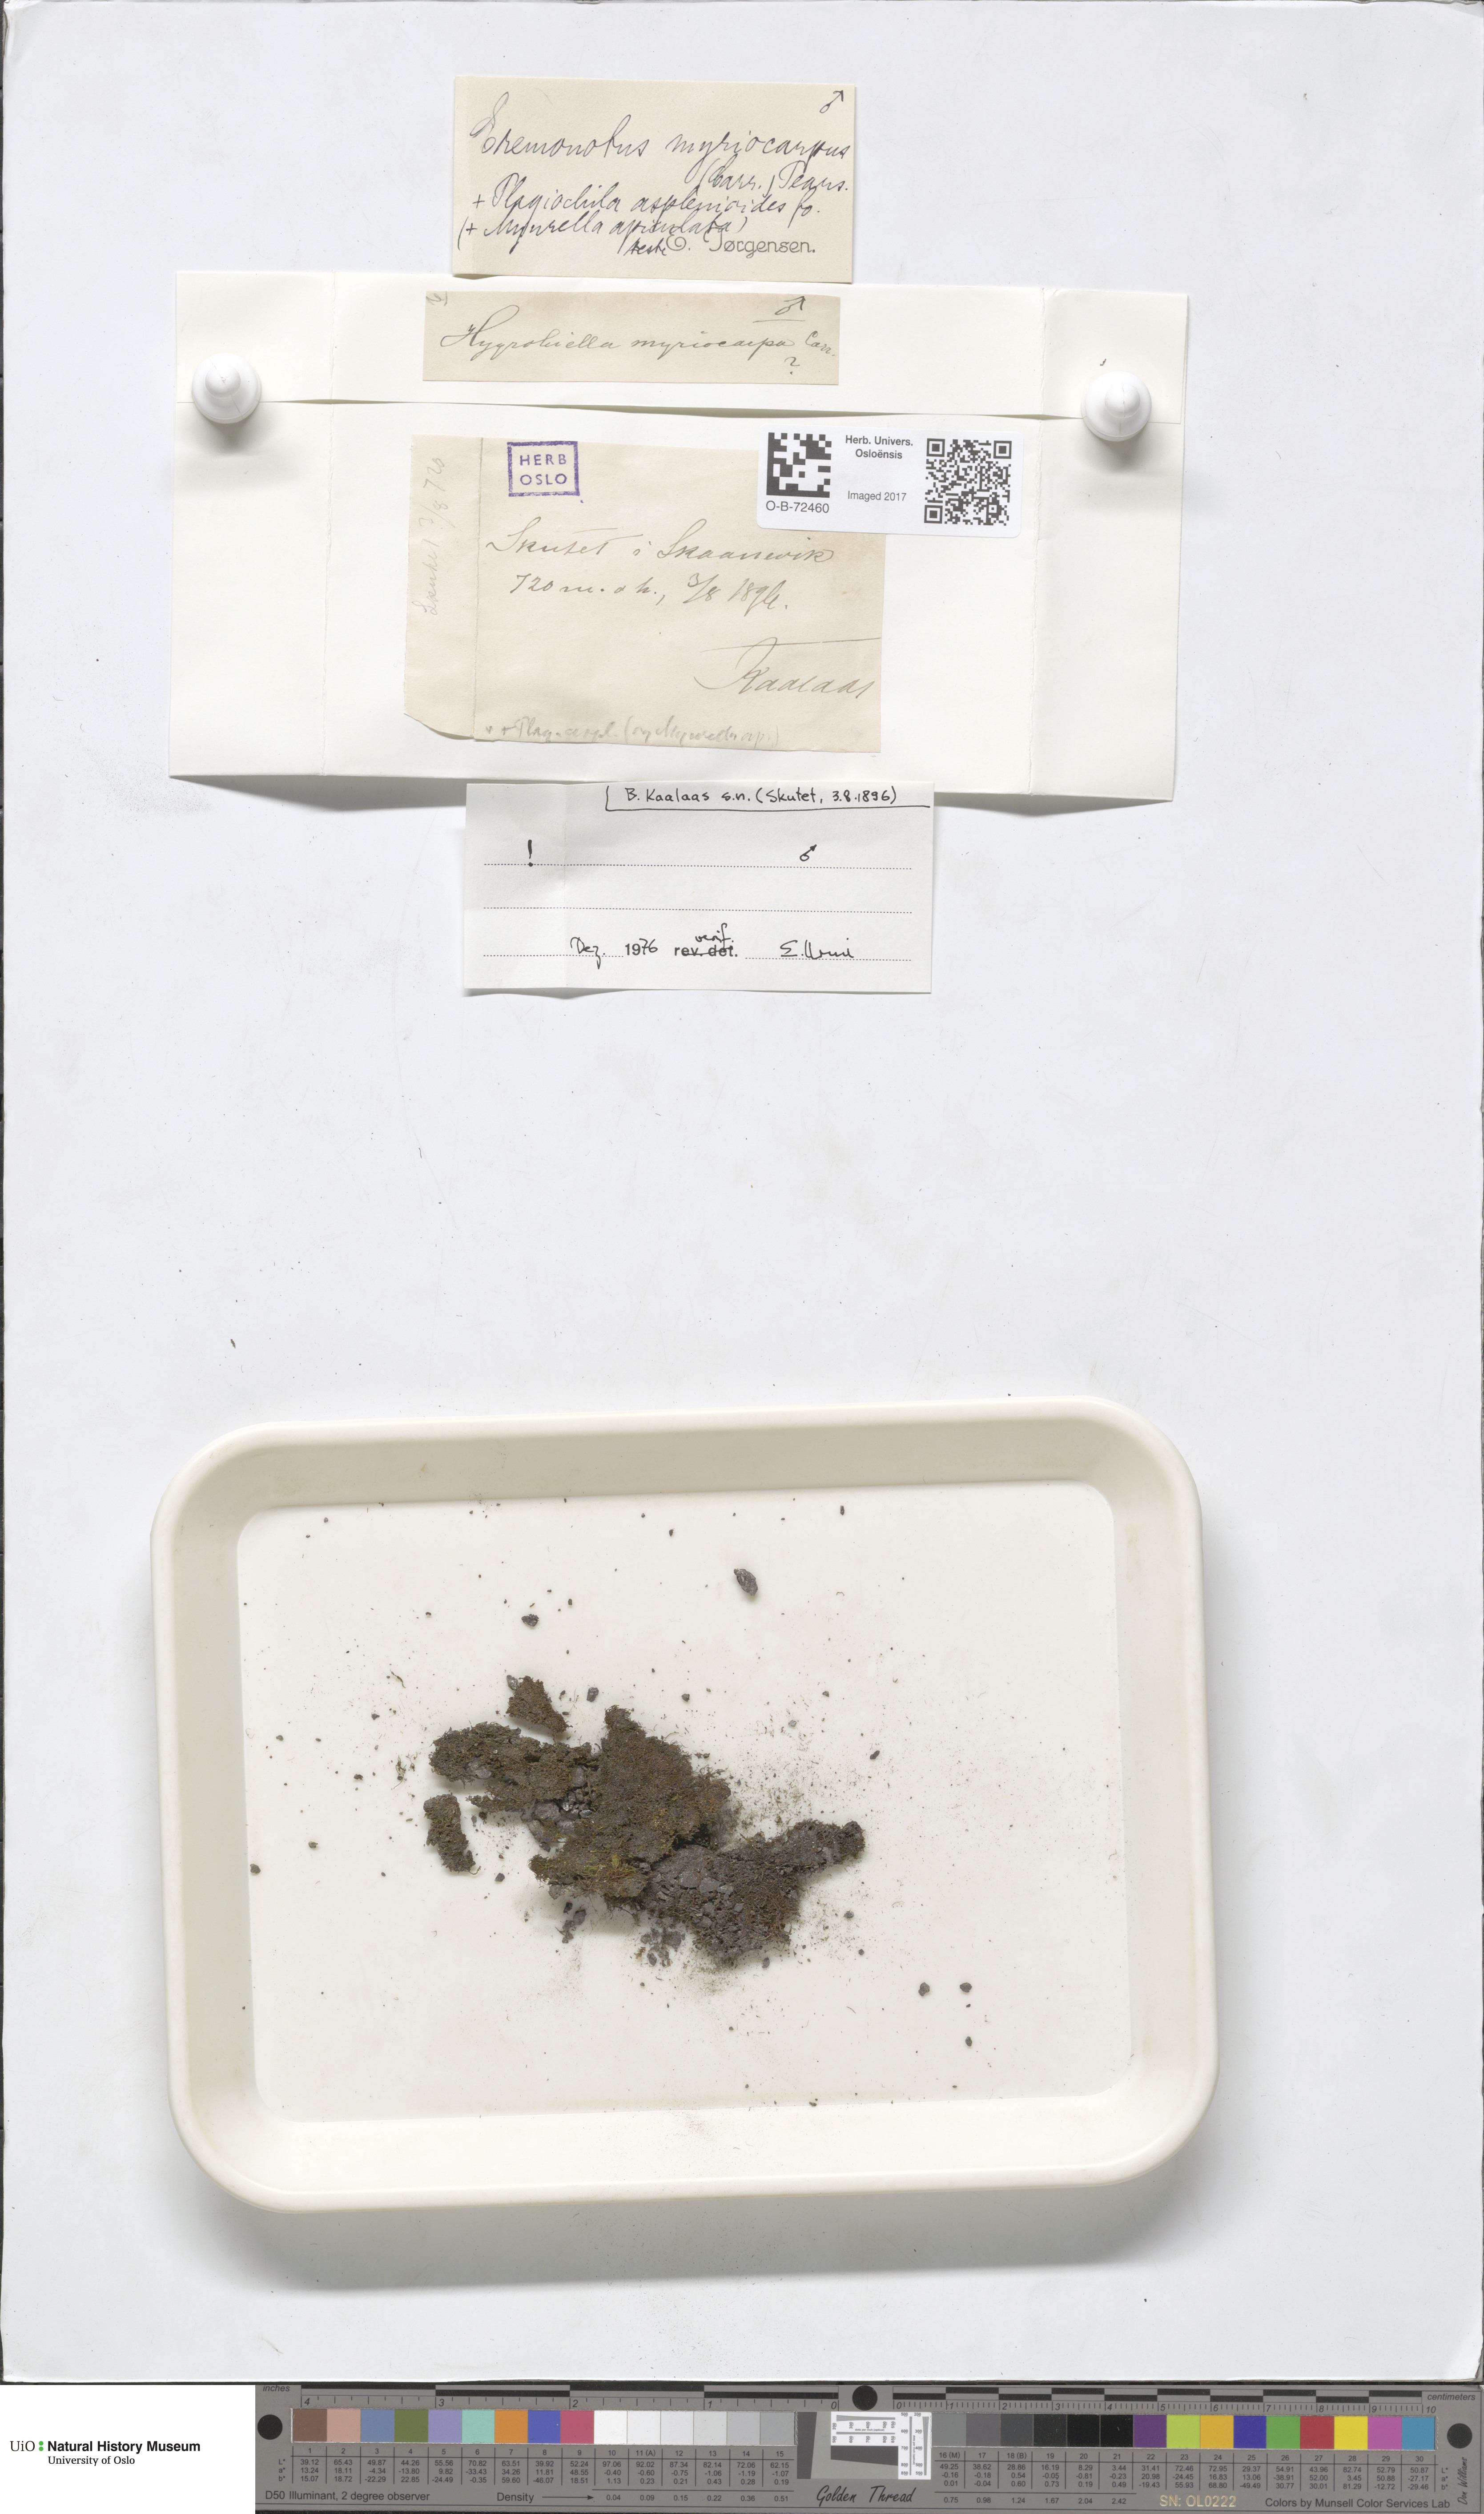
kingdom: Plantae
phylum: Marchantiophyta
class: Jungermanniopsida
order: Jungermanniales
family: Jungermanniaceae
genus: Eremonotus
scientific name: Eremonotus myriocarpus
